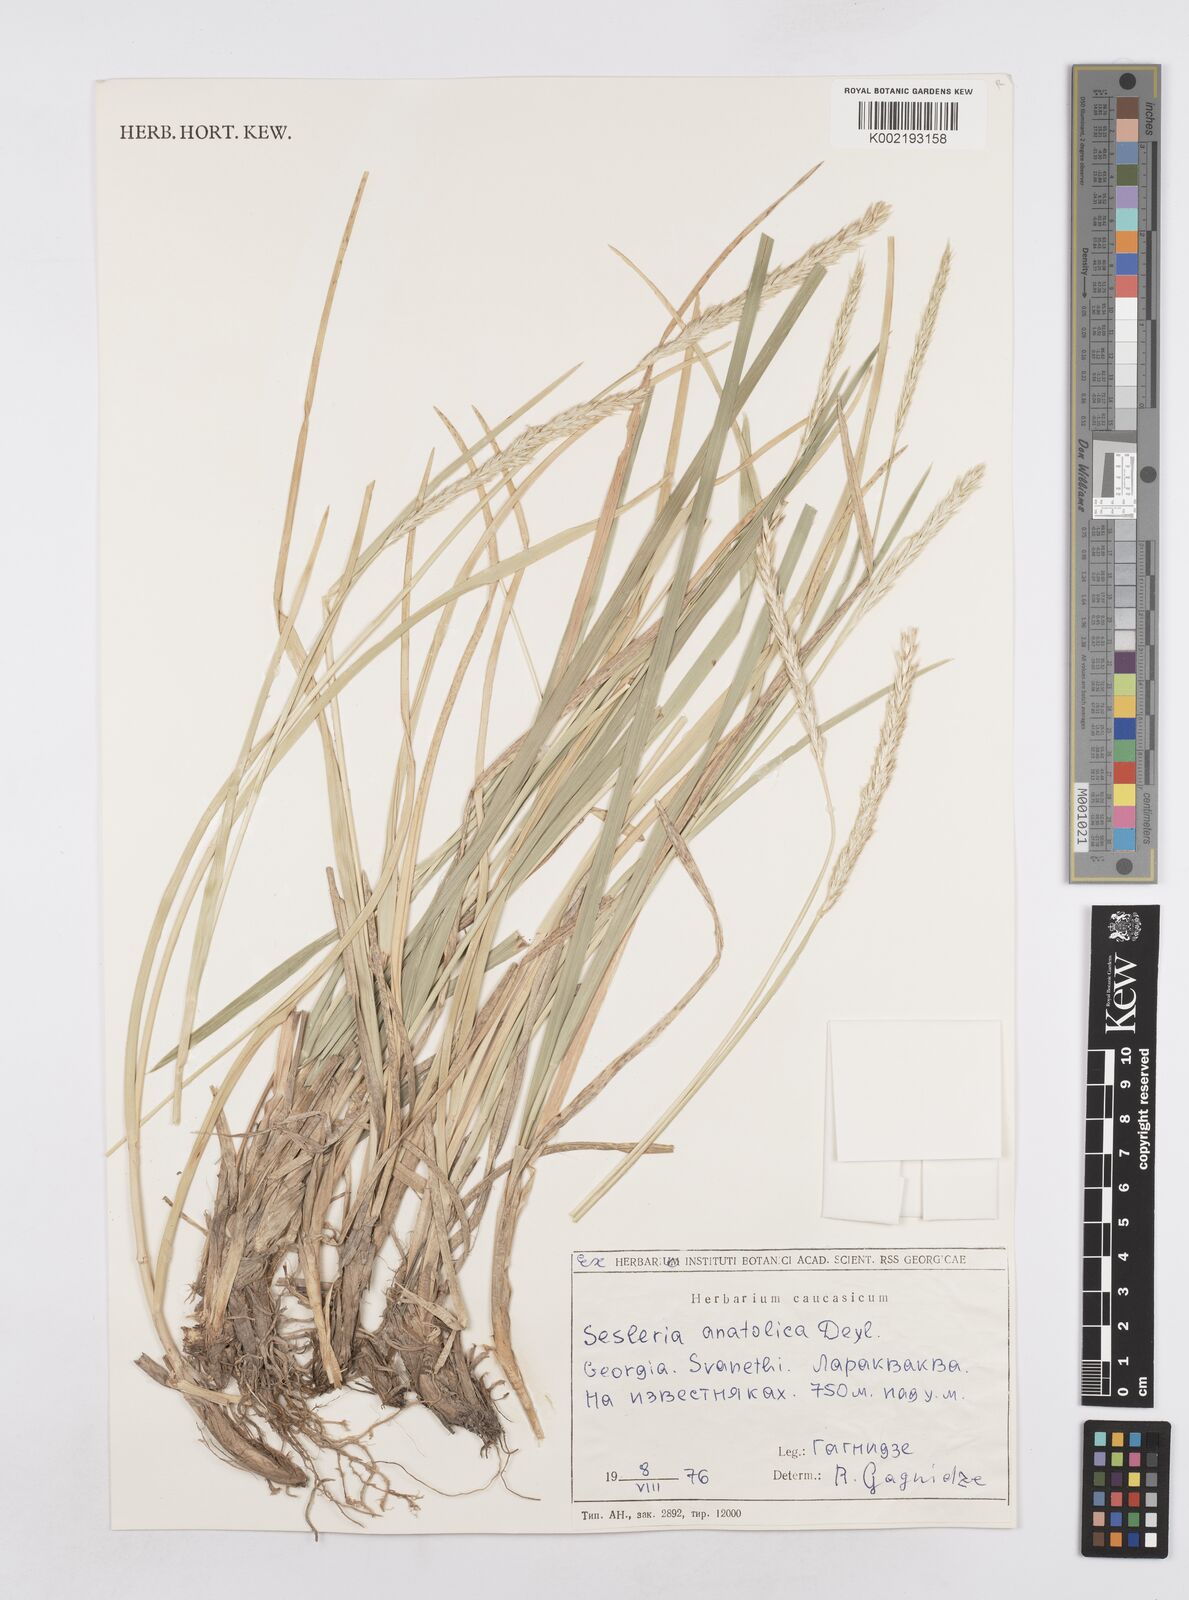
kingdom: Plantae
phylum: Tracheophyta
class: Liliopsida
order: Poales
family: Poaceae
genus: Sesleria
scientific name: Sesleria alba
